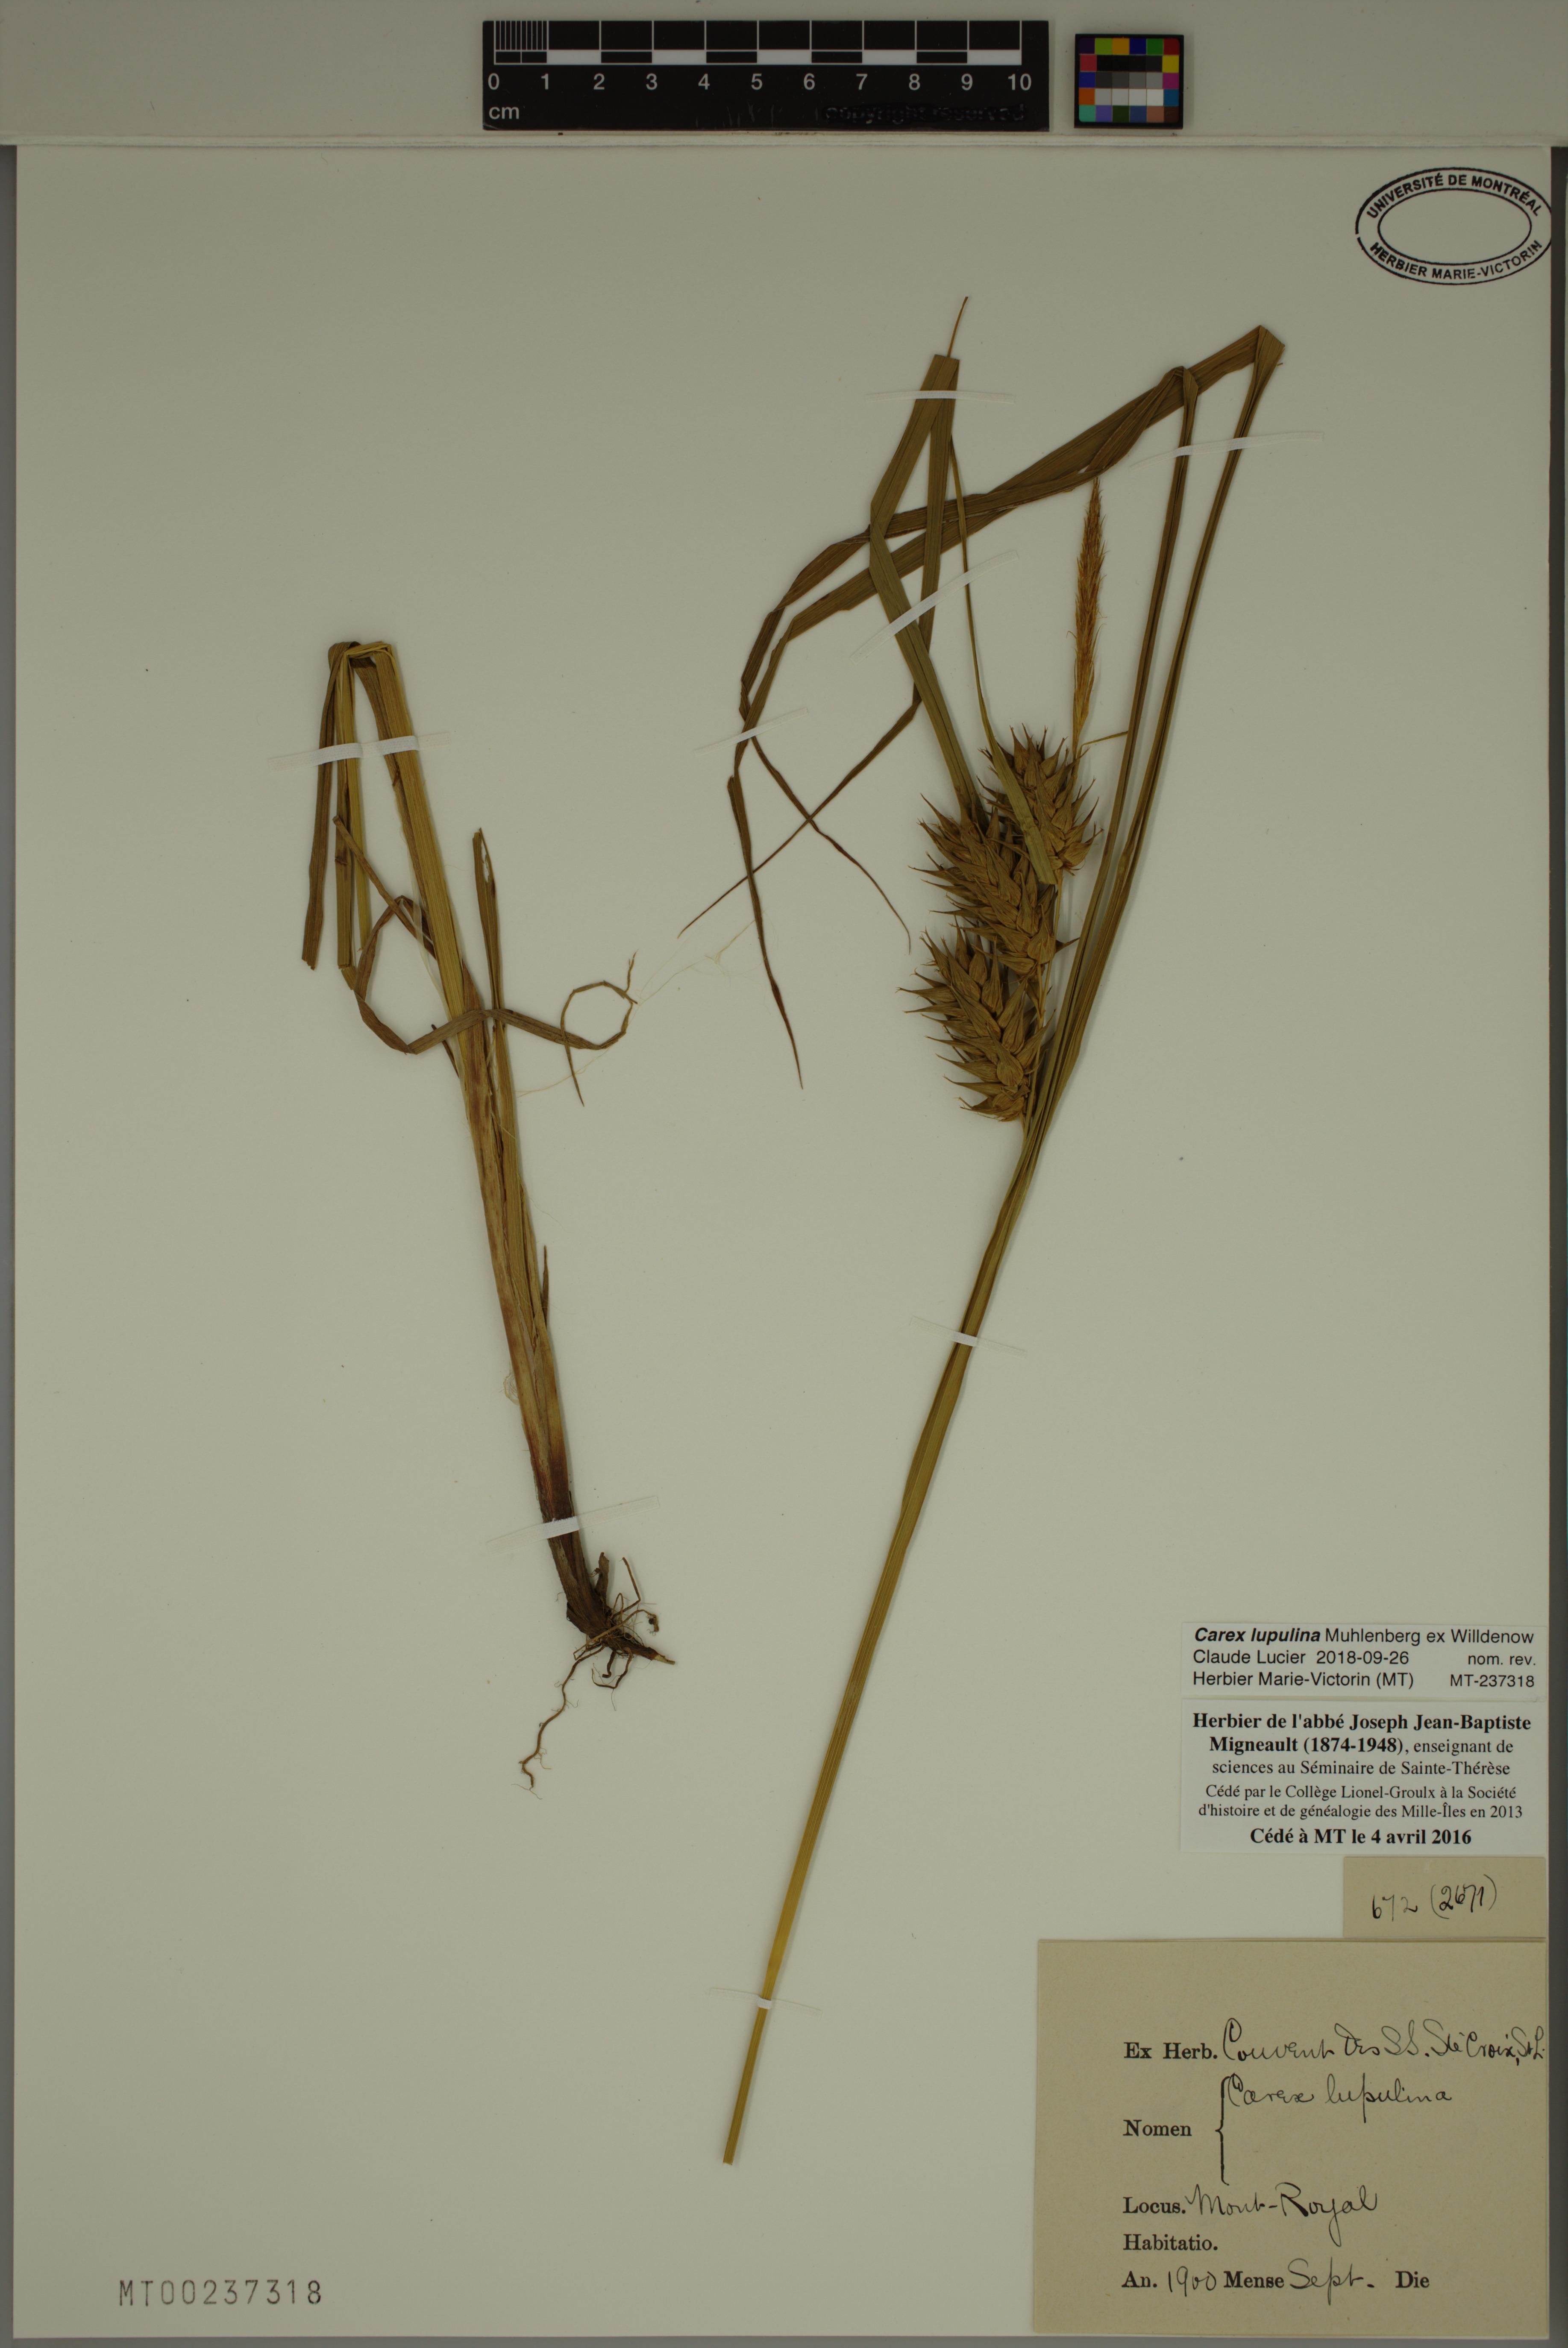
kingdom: Plantae
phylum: Tracheophyta
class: Liliopsida
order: Poales
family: Cyperaceae
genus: Carex
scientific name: Carex lupulina
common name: Hop sedge
